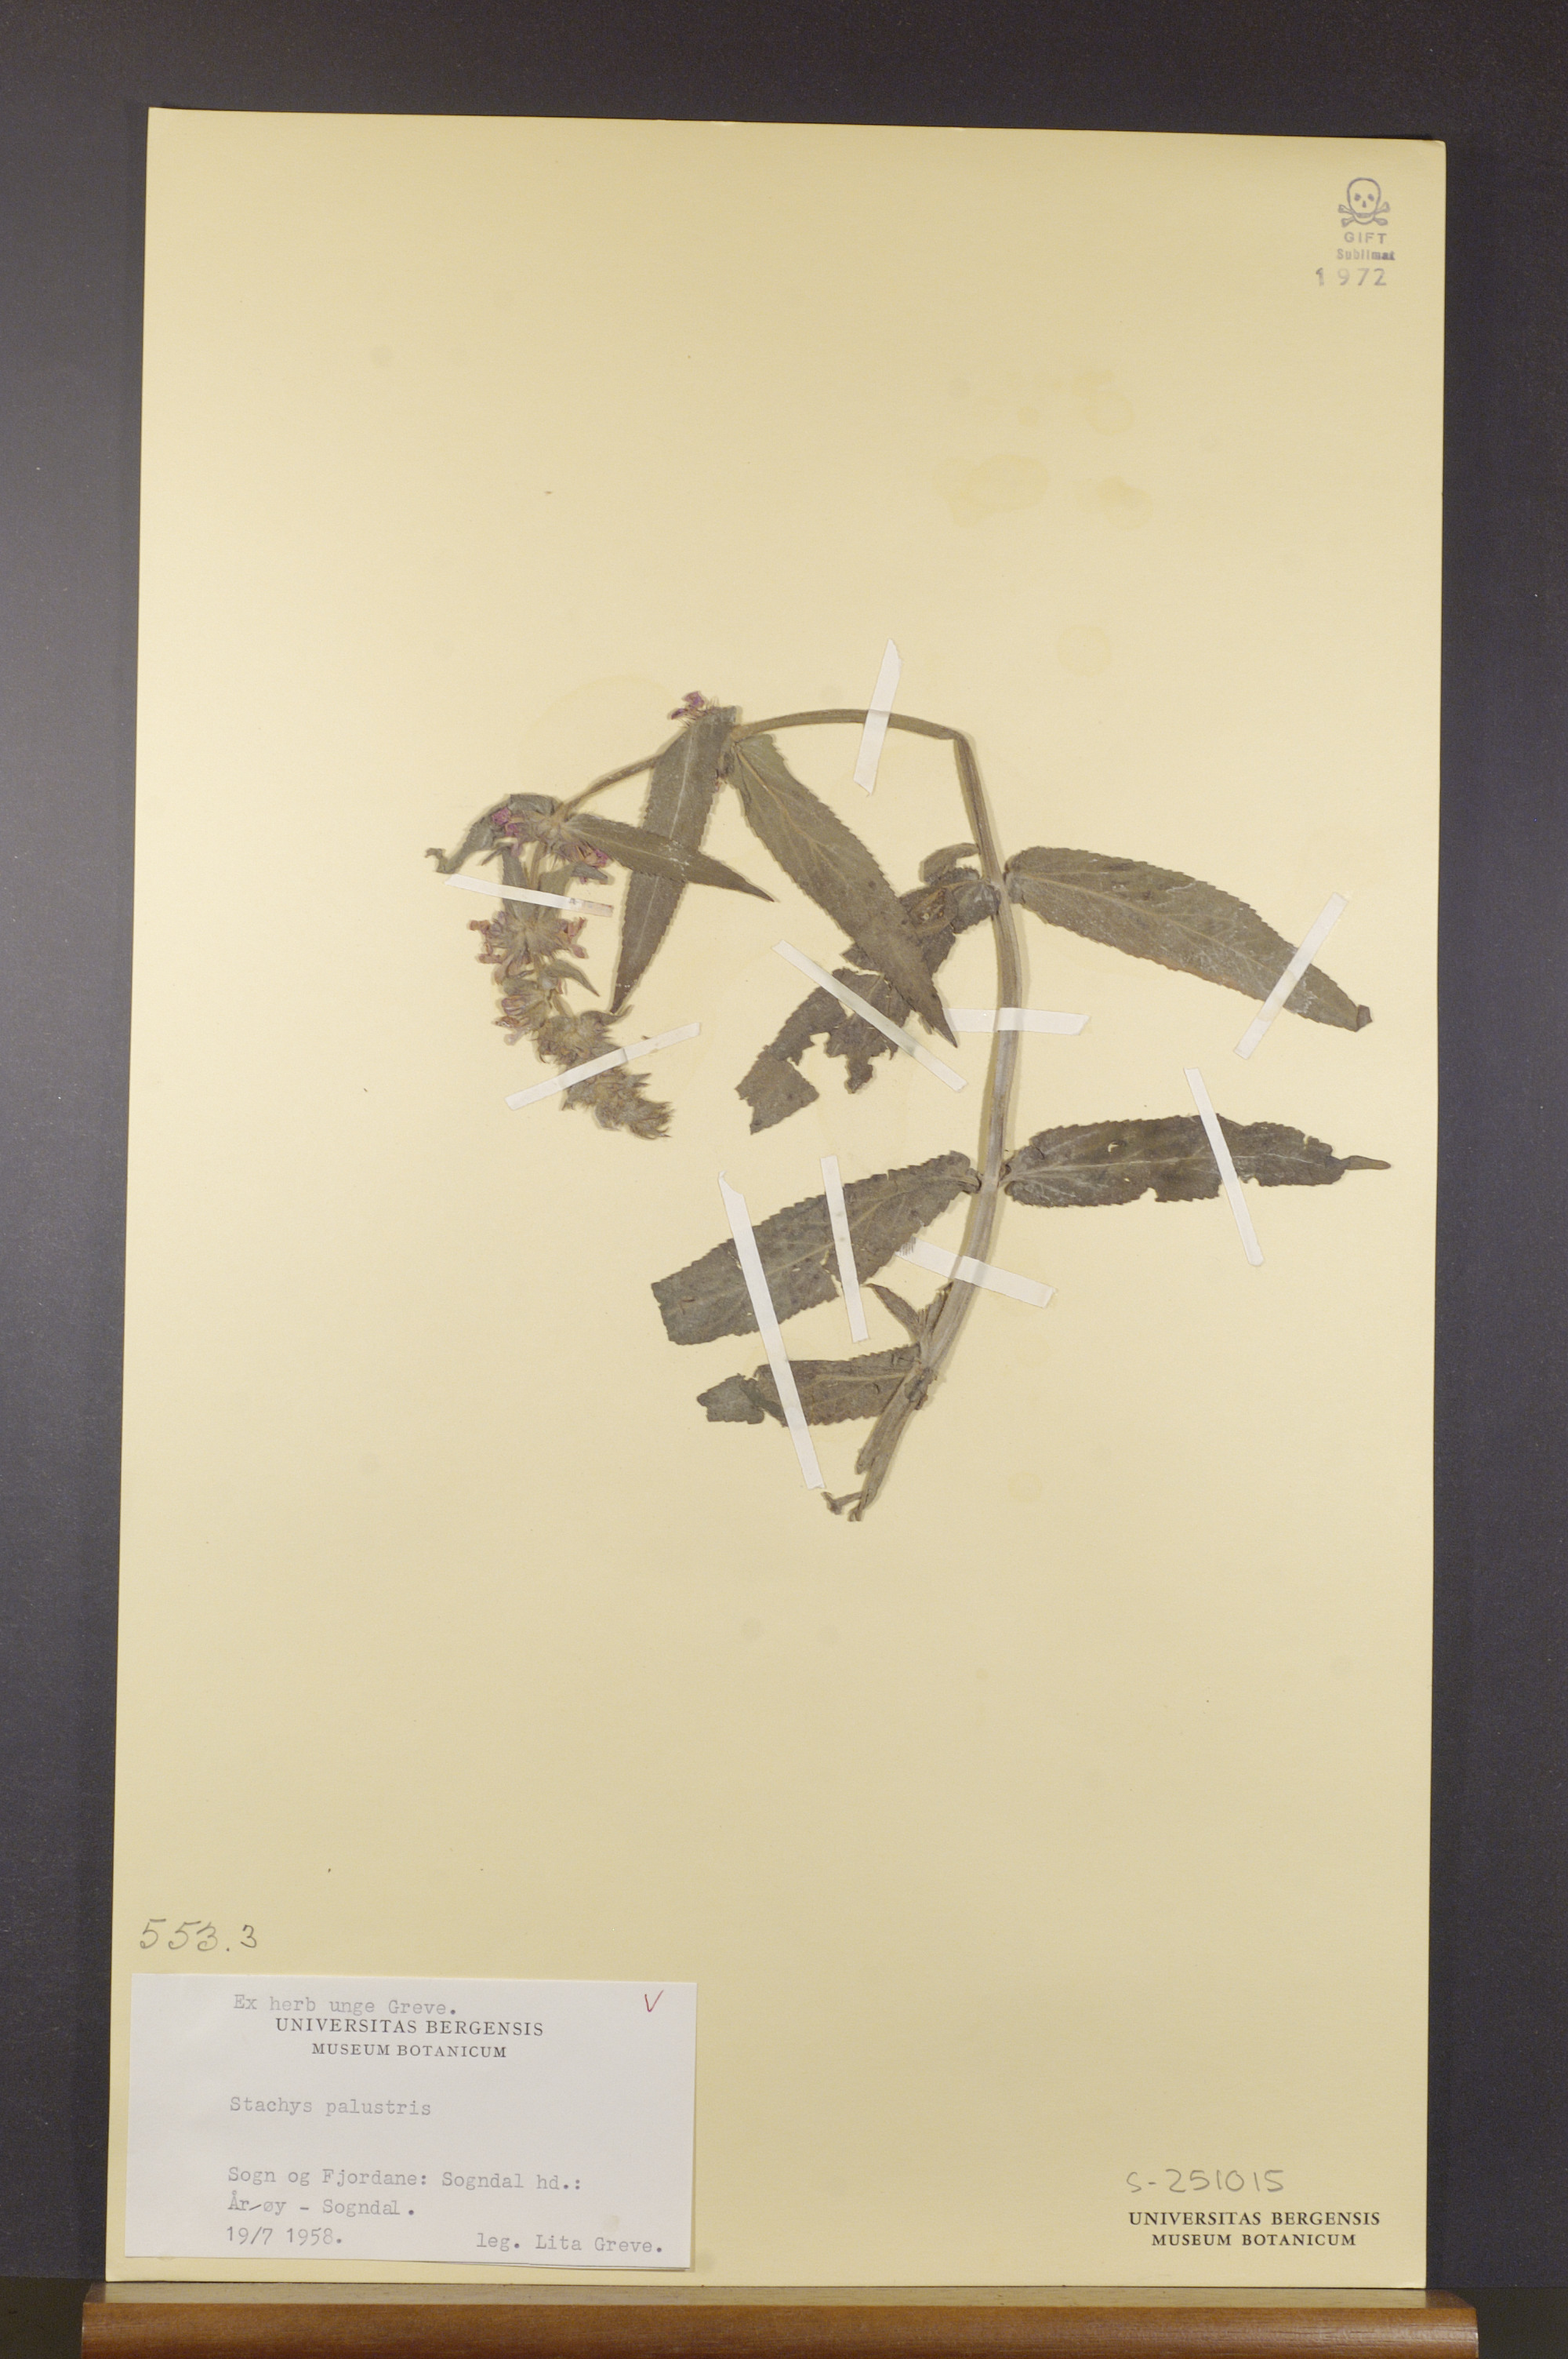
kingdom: Plantae
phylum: Tracheophyta
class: Magnoliopsida
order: Lamiales
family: Lamiaceae
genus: Stachys
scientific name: Stachys palustris
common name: Marsh woundwort
